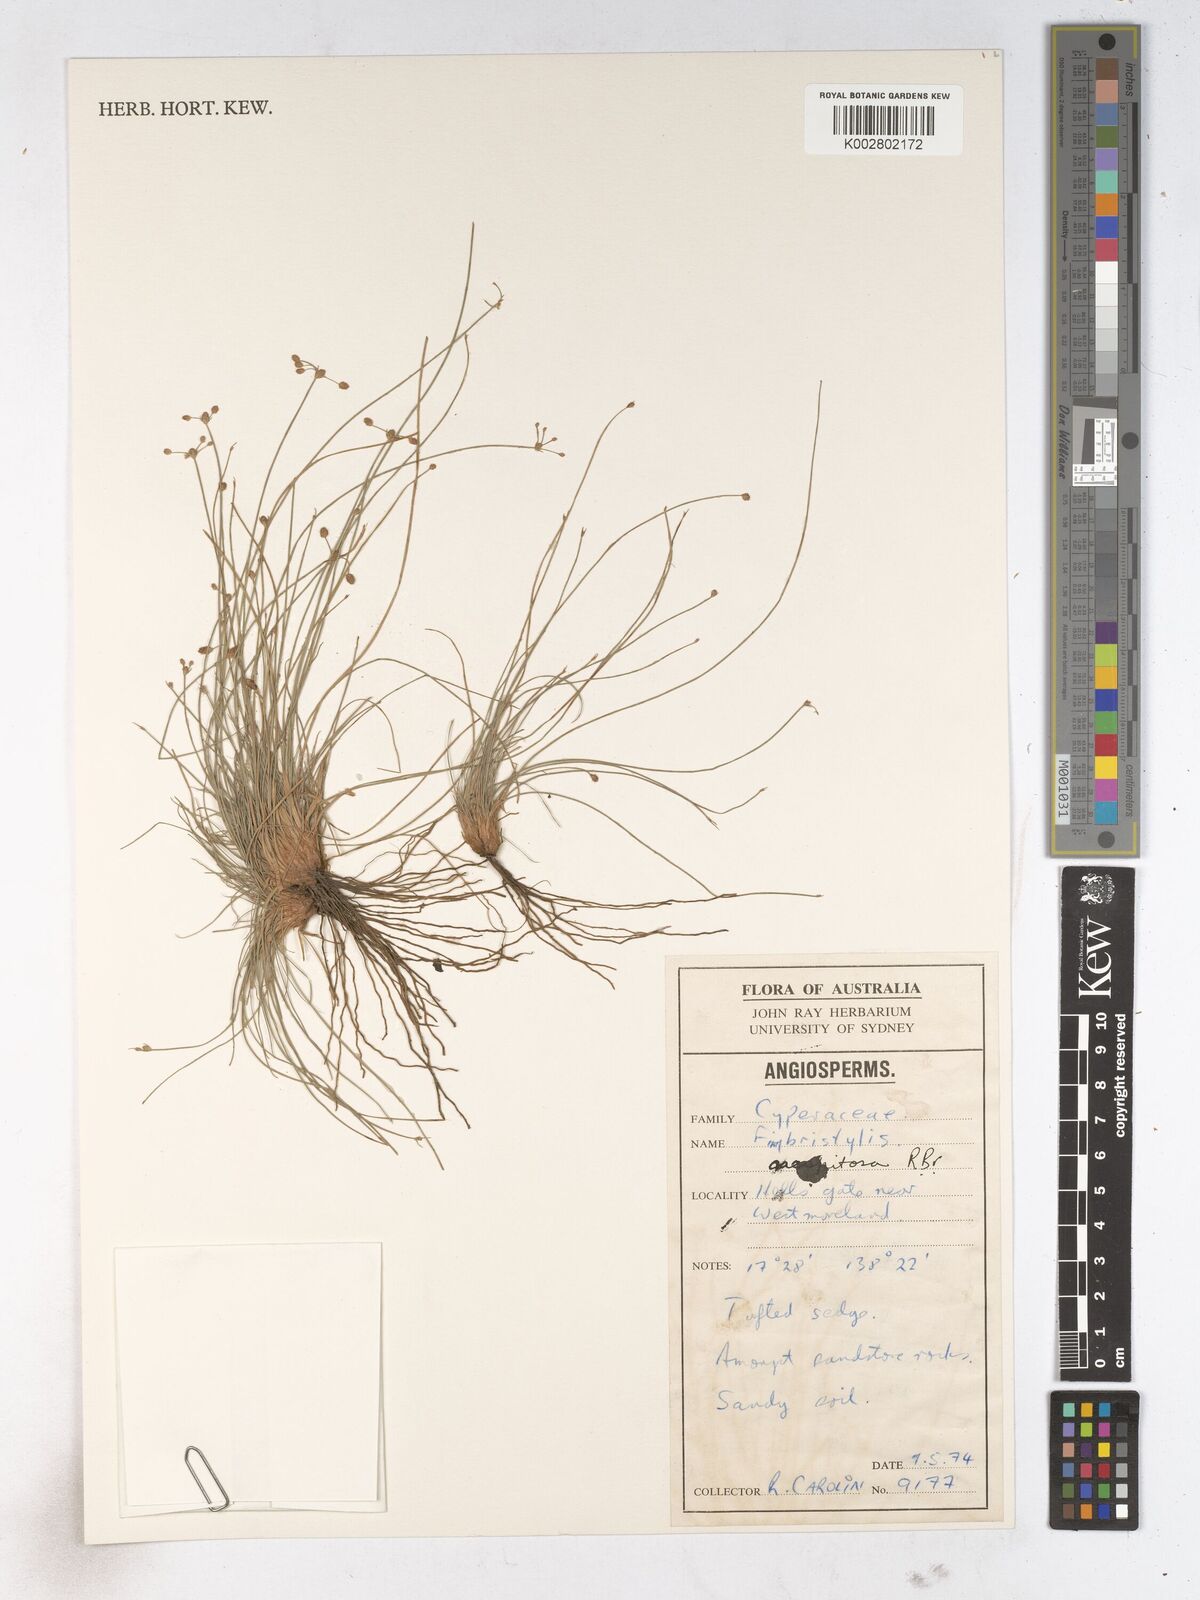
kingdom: Plantae
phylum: Tracheophyta
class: Liliopsida
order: Poales
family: Cyperaceae
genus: Fimbristylis
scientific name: Fimbristylis caespitosa
